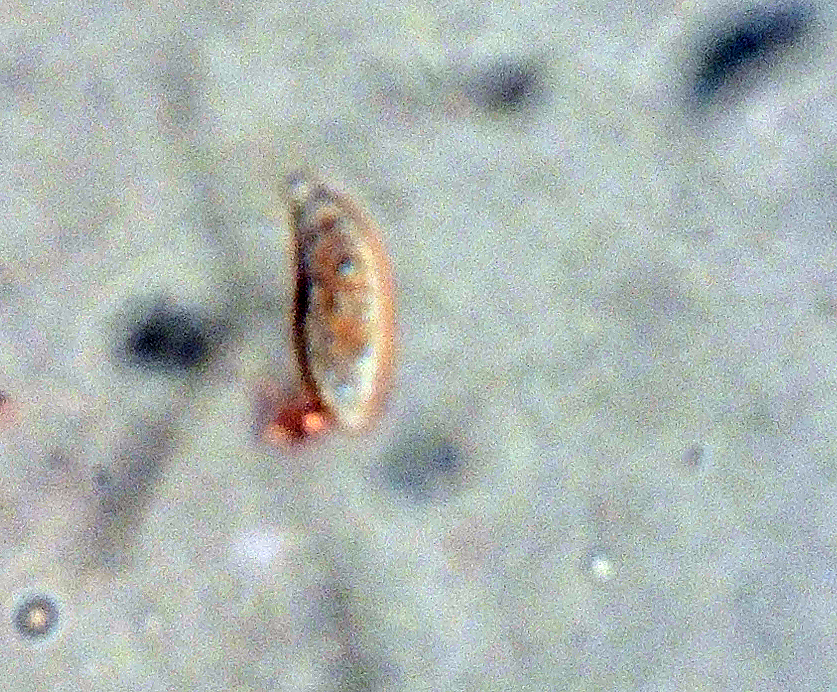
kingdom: Fungi
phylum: Basidiomycota
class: Agaricomycetes
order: Agaricales
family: Niaceae
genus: Flagelloscypha
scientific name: Flagelloscypha faginea
